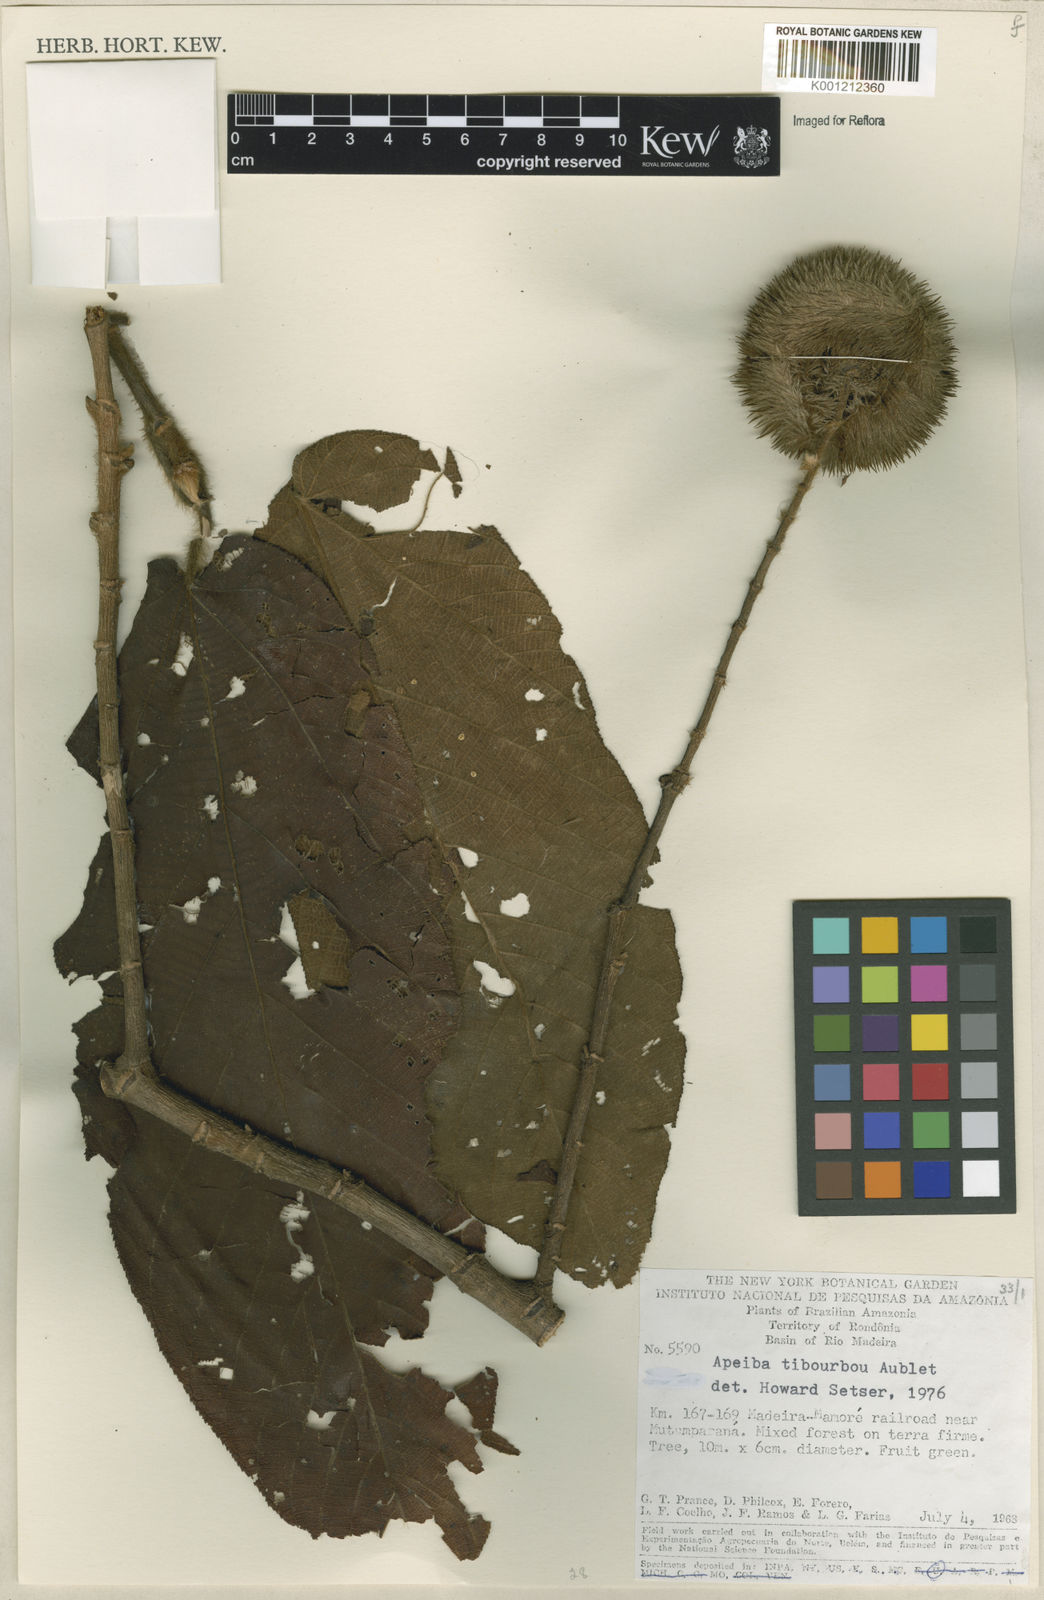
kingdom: Plantae
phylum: Tracheophyta
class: Magnoliopsida
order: Malvales
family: Malvaceae
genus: Apeiba
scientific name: Apeiba tibourbou
